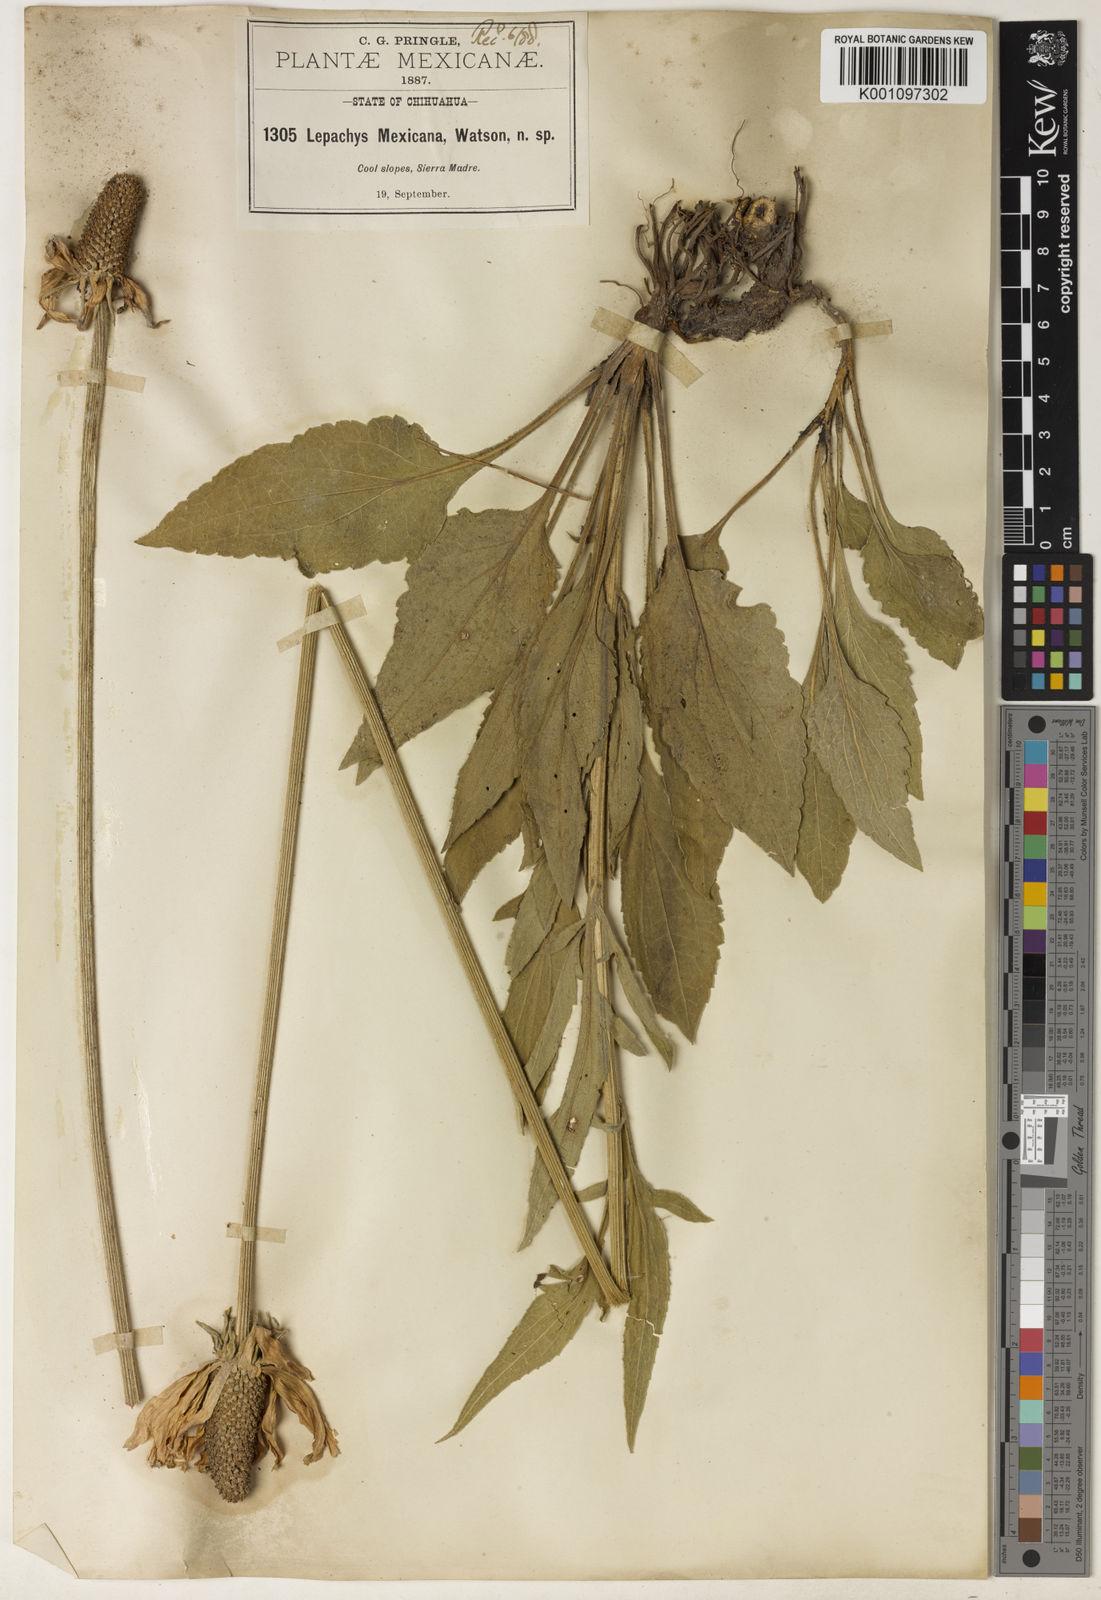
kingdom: Plantae
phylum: Tracheophyta
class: Magnoliopsida
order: Asterales
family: Asteraceae
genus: Ratibida
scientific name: Ratibida mexicana
